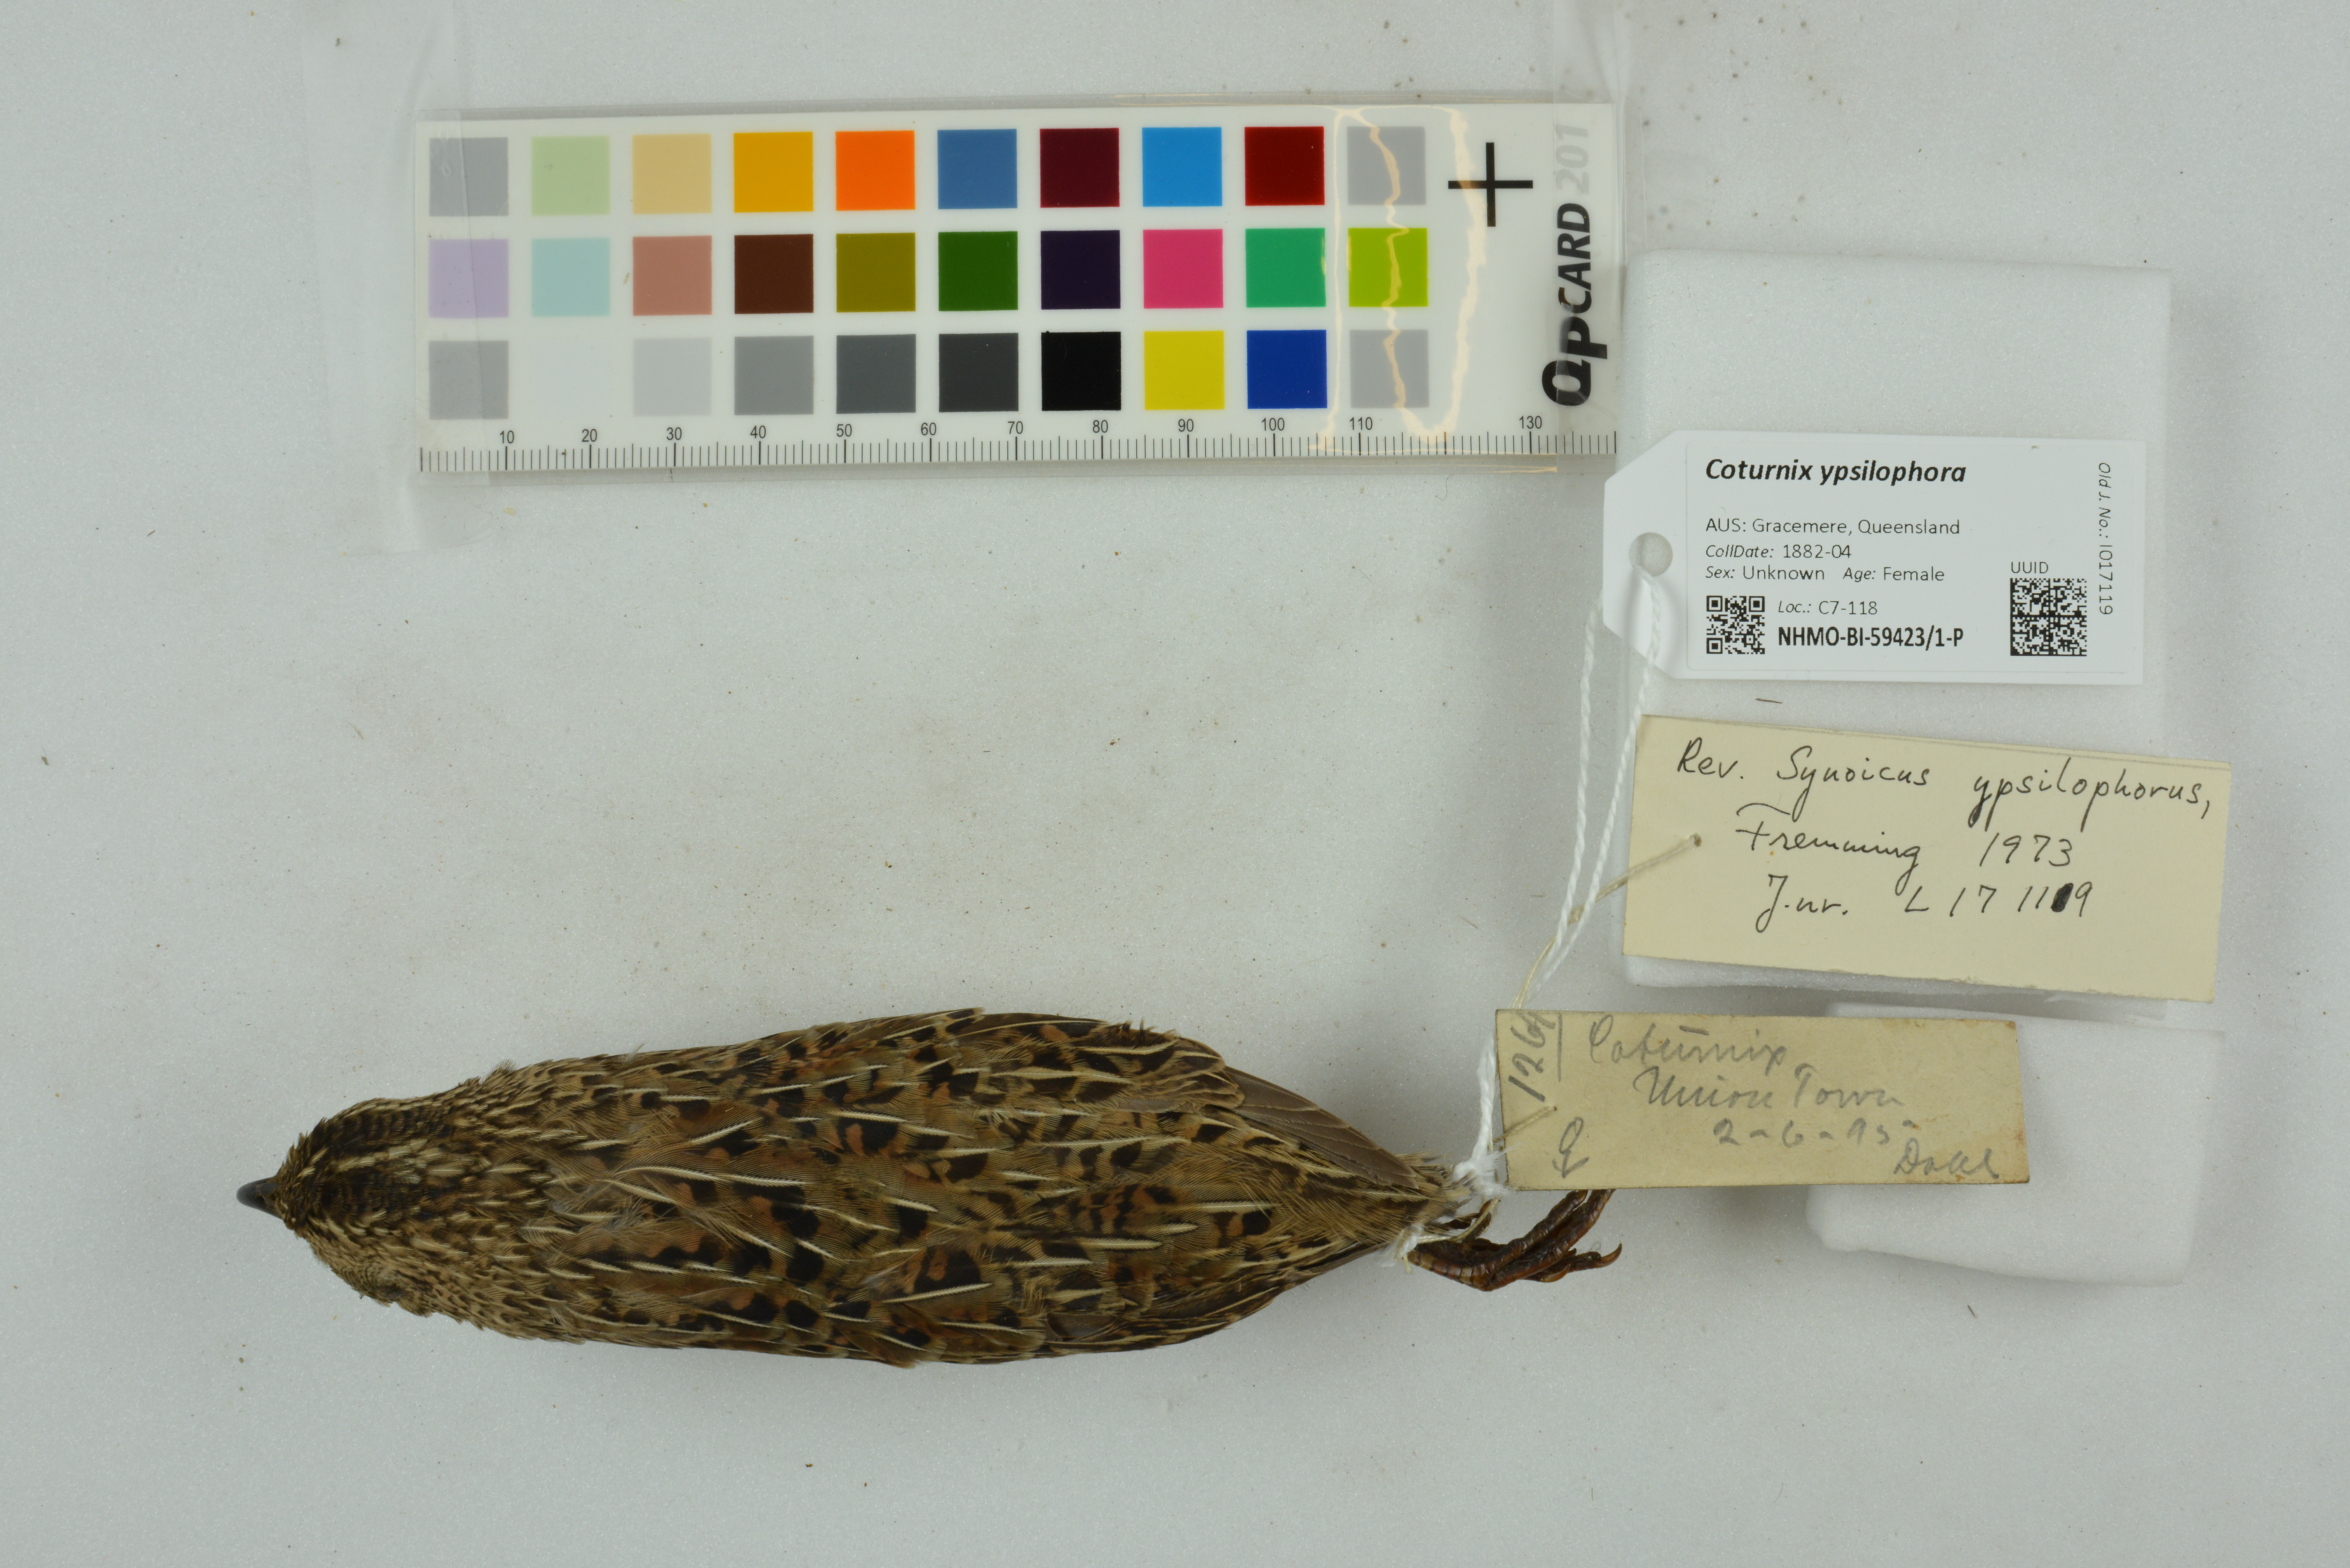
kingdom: Animalia
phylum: Chordata
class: Aves
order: Galliformes
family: Phasianidae
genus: Synoicus
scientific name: Synoicus ypsilophorus
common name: Brown quail
